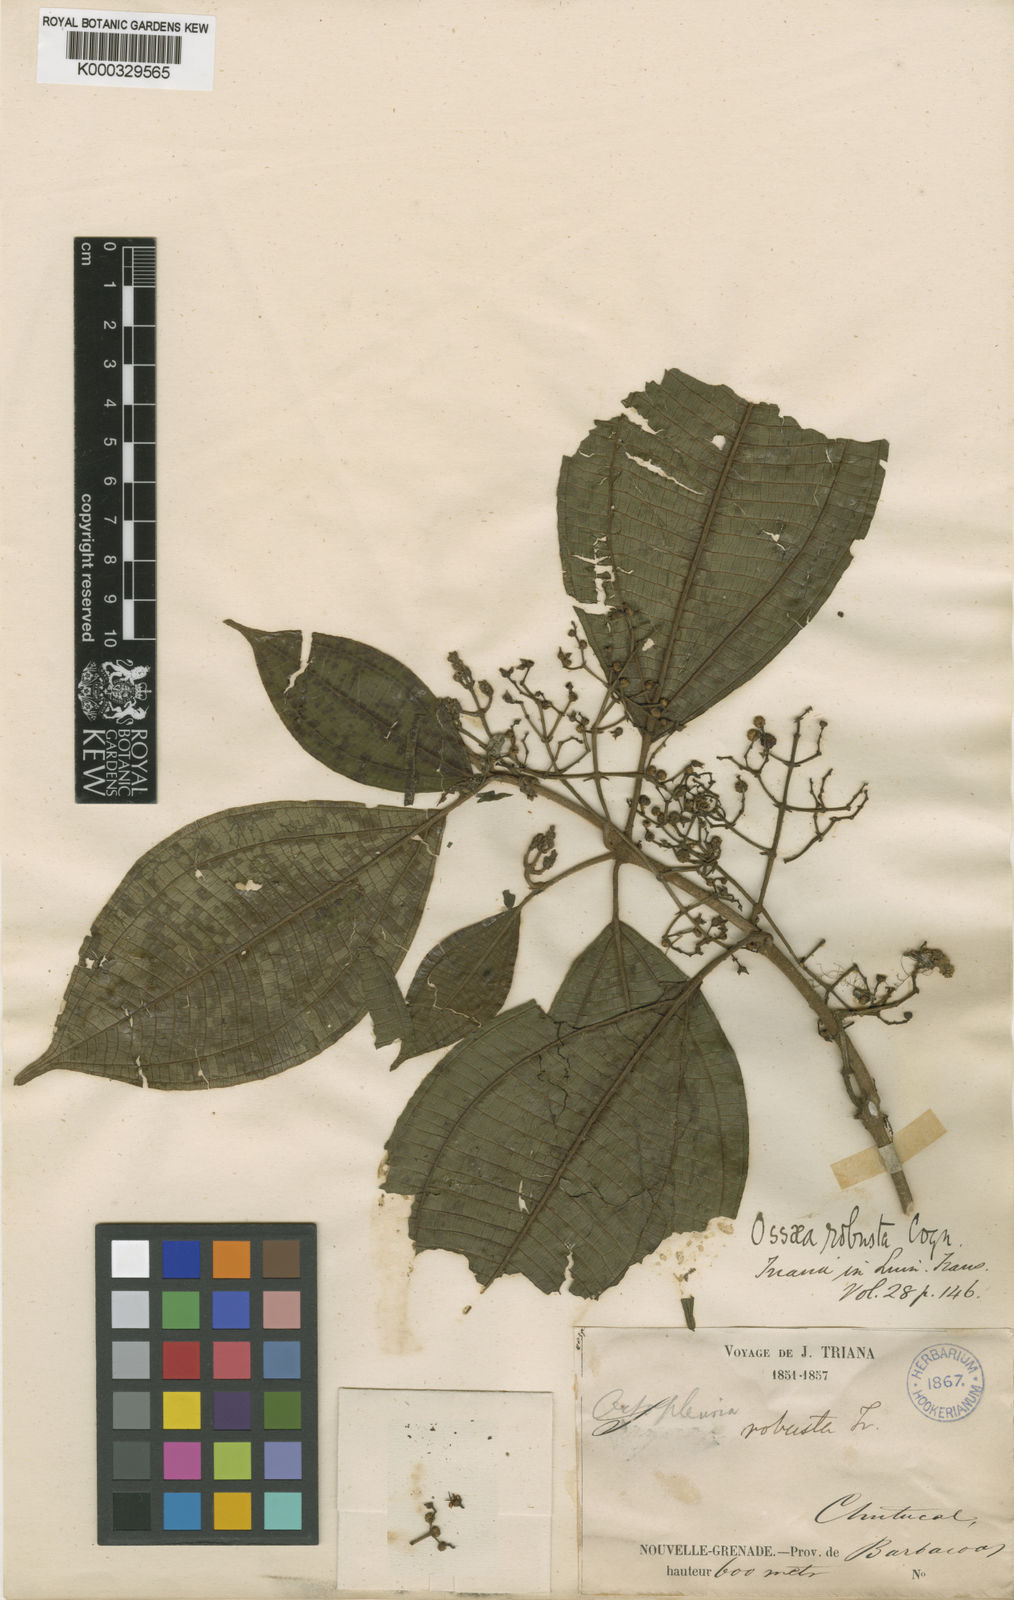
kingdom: Plantae
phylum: Tracheophyta
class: Magnoliopsida
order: Myrtales
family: Melastomataceae
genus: Miconia
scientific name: Miconia variabilis
